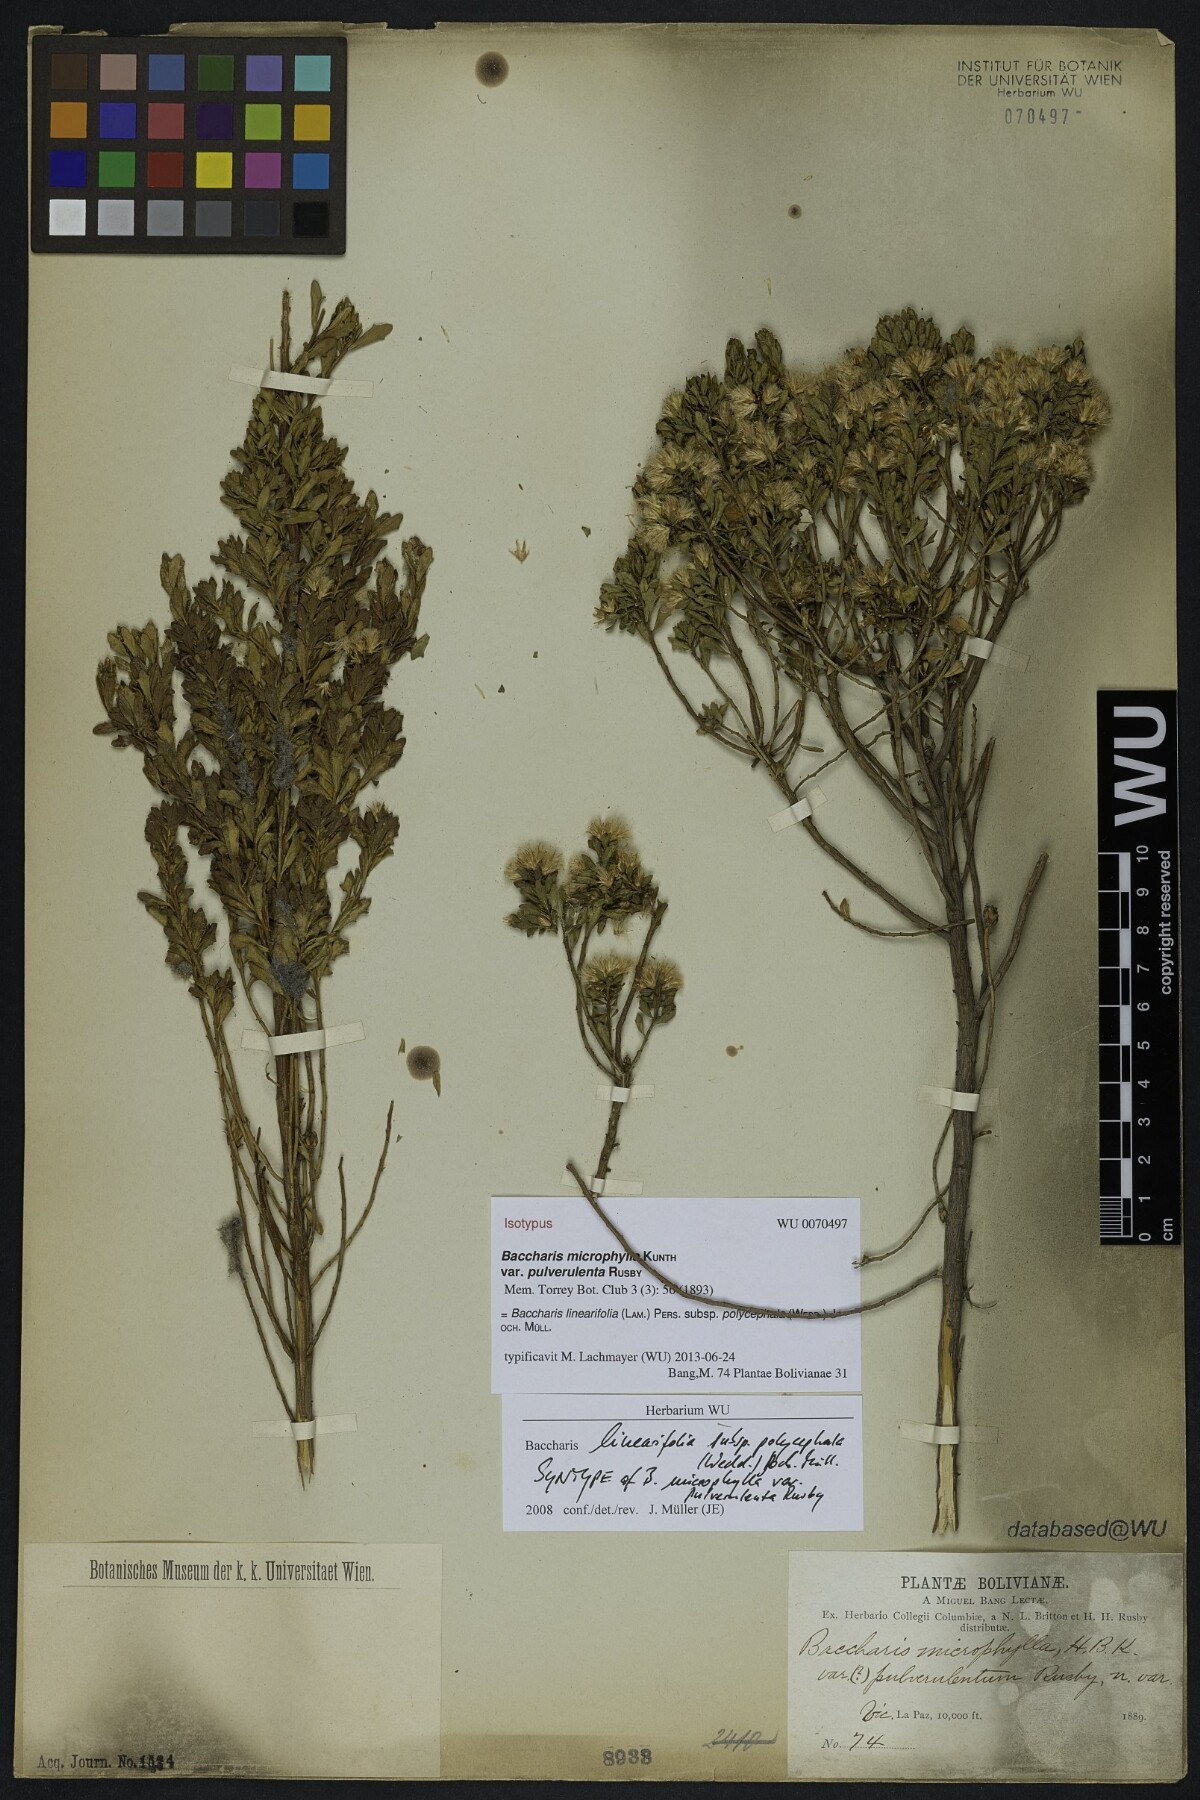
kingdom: Plantae
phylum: Tracheophyta
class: Magnoliopsida
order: Asterales
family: Asteraceae
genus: Baccharis
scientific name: Baccharis tricuneata
